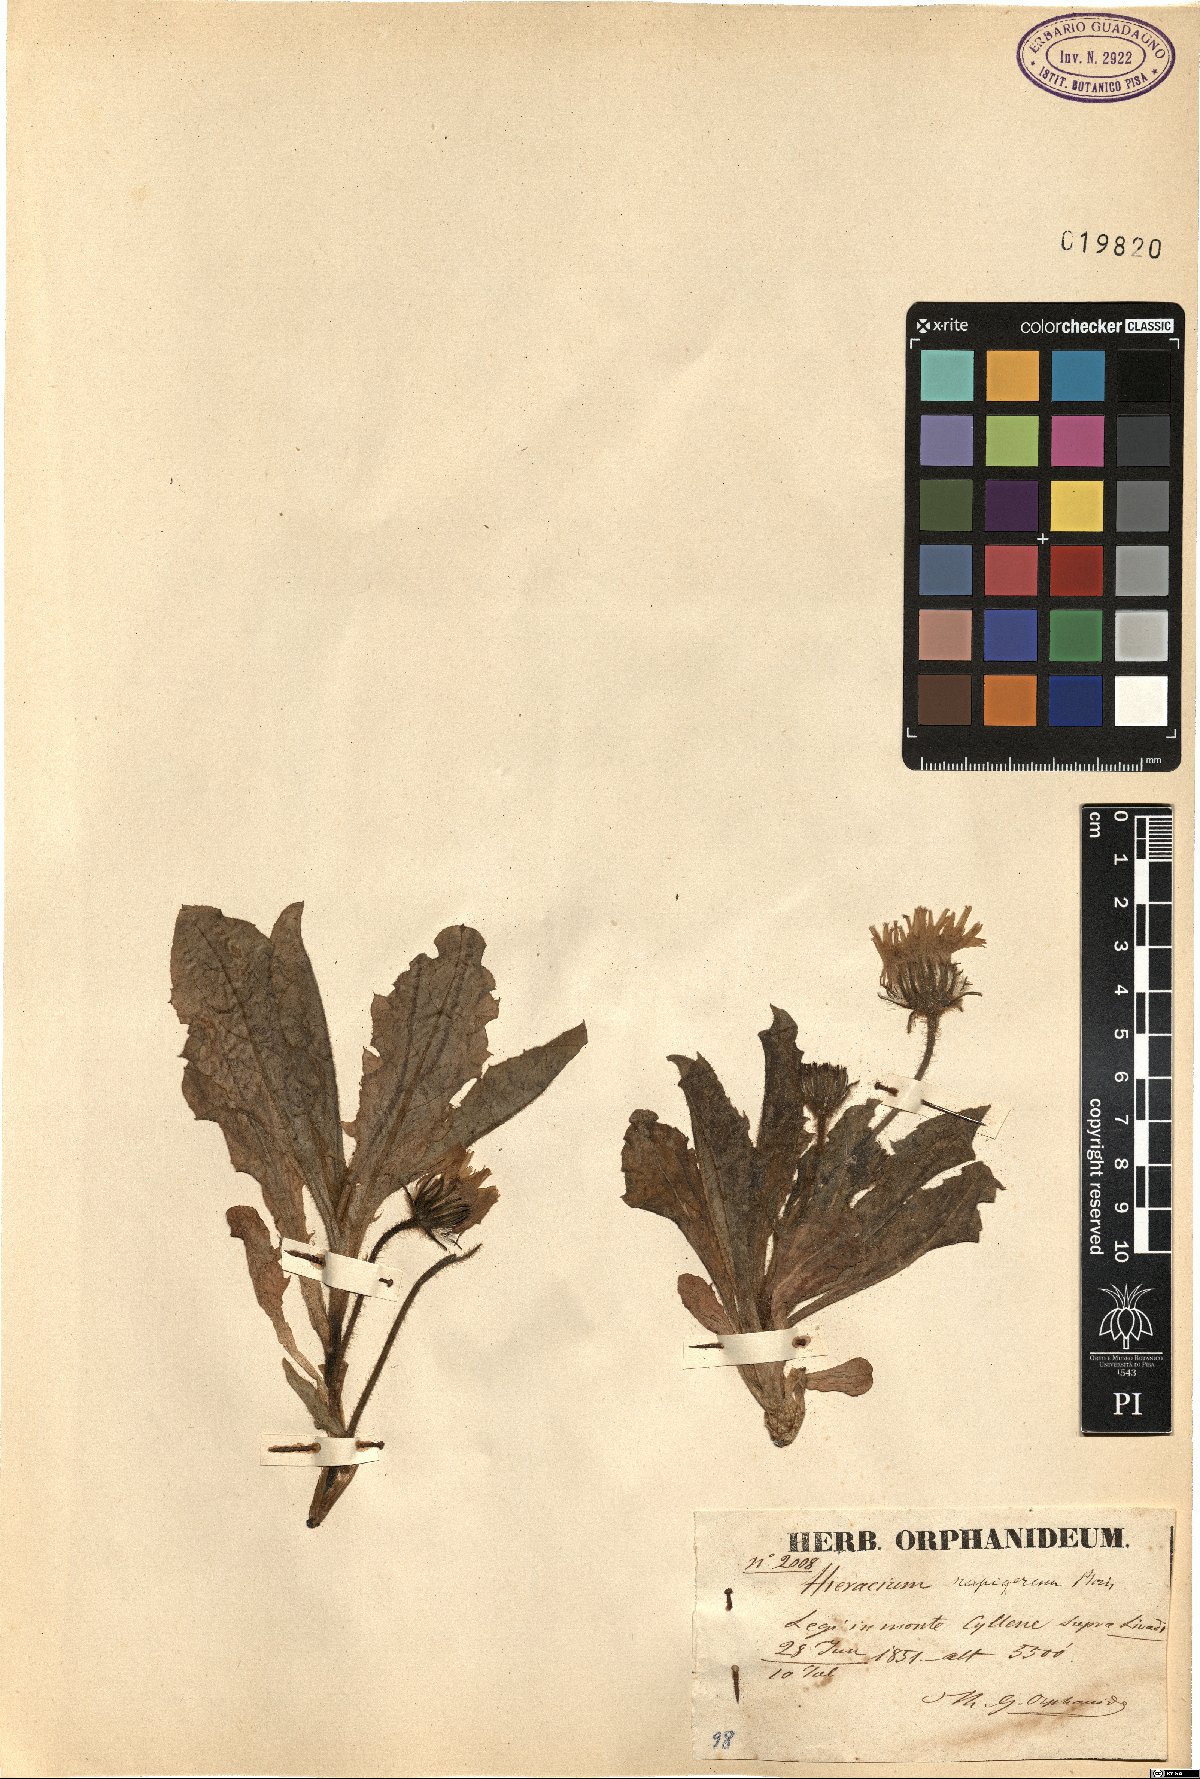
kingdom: Plantae
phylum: Tracheophyta
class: Magnoliopsida
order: Asterales
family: Asteraceae
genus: Hieracium
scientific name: Hieracium scapigerum
